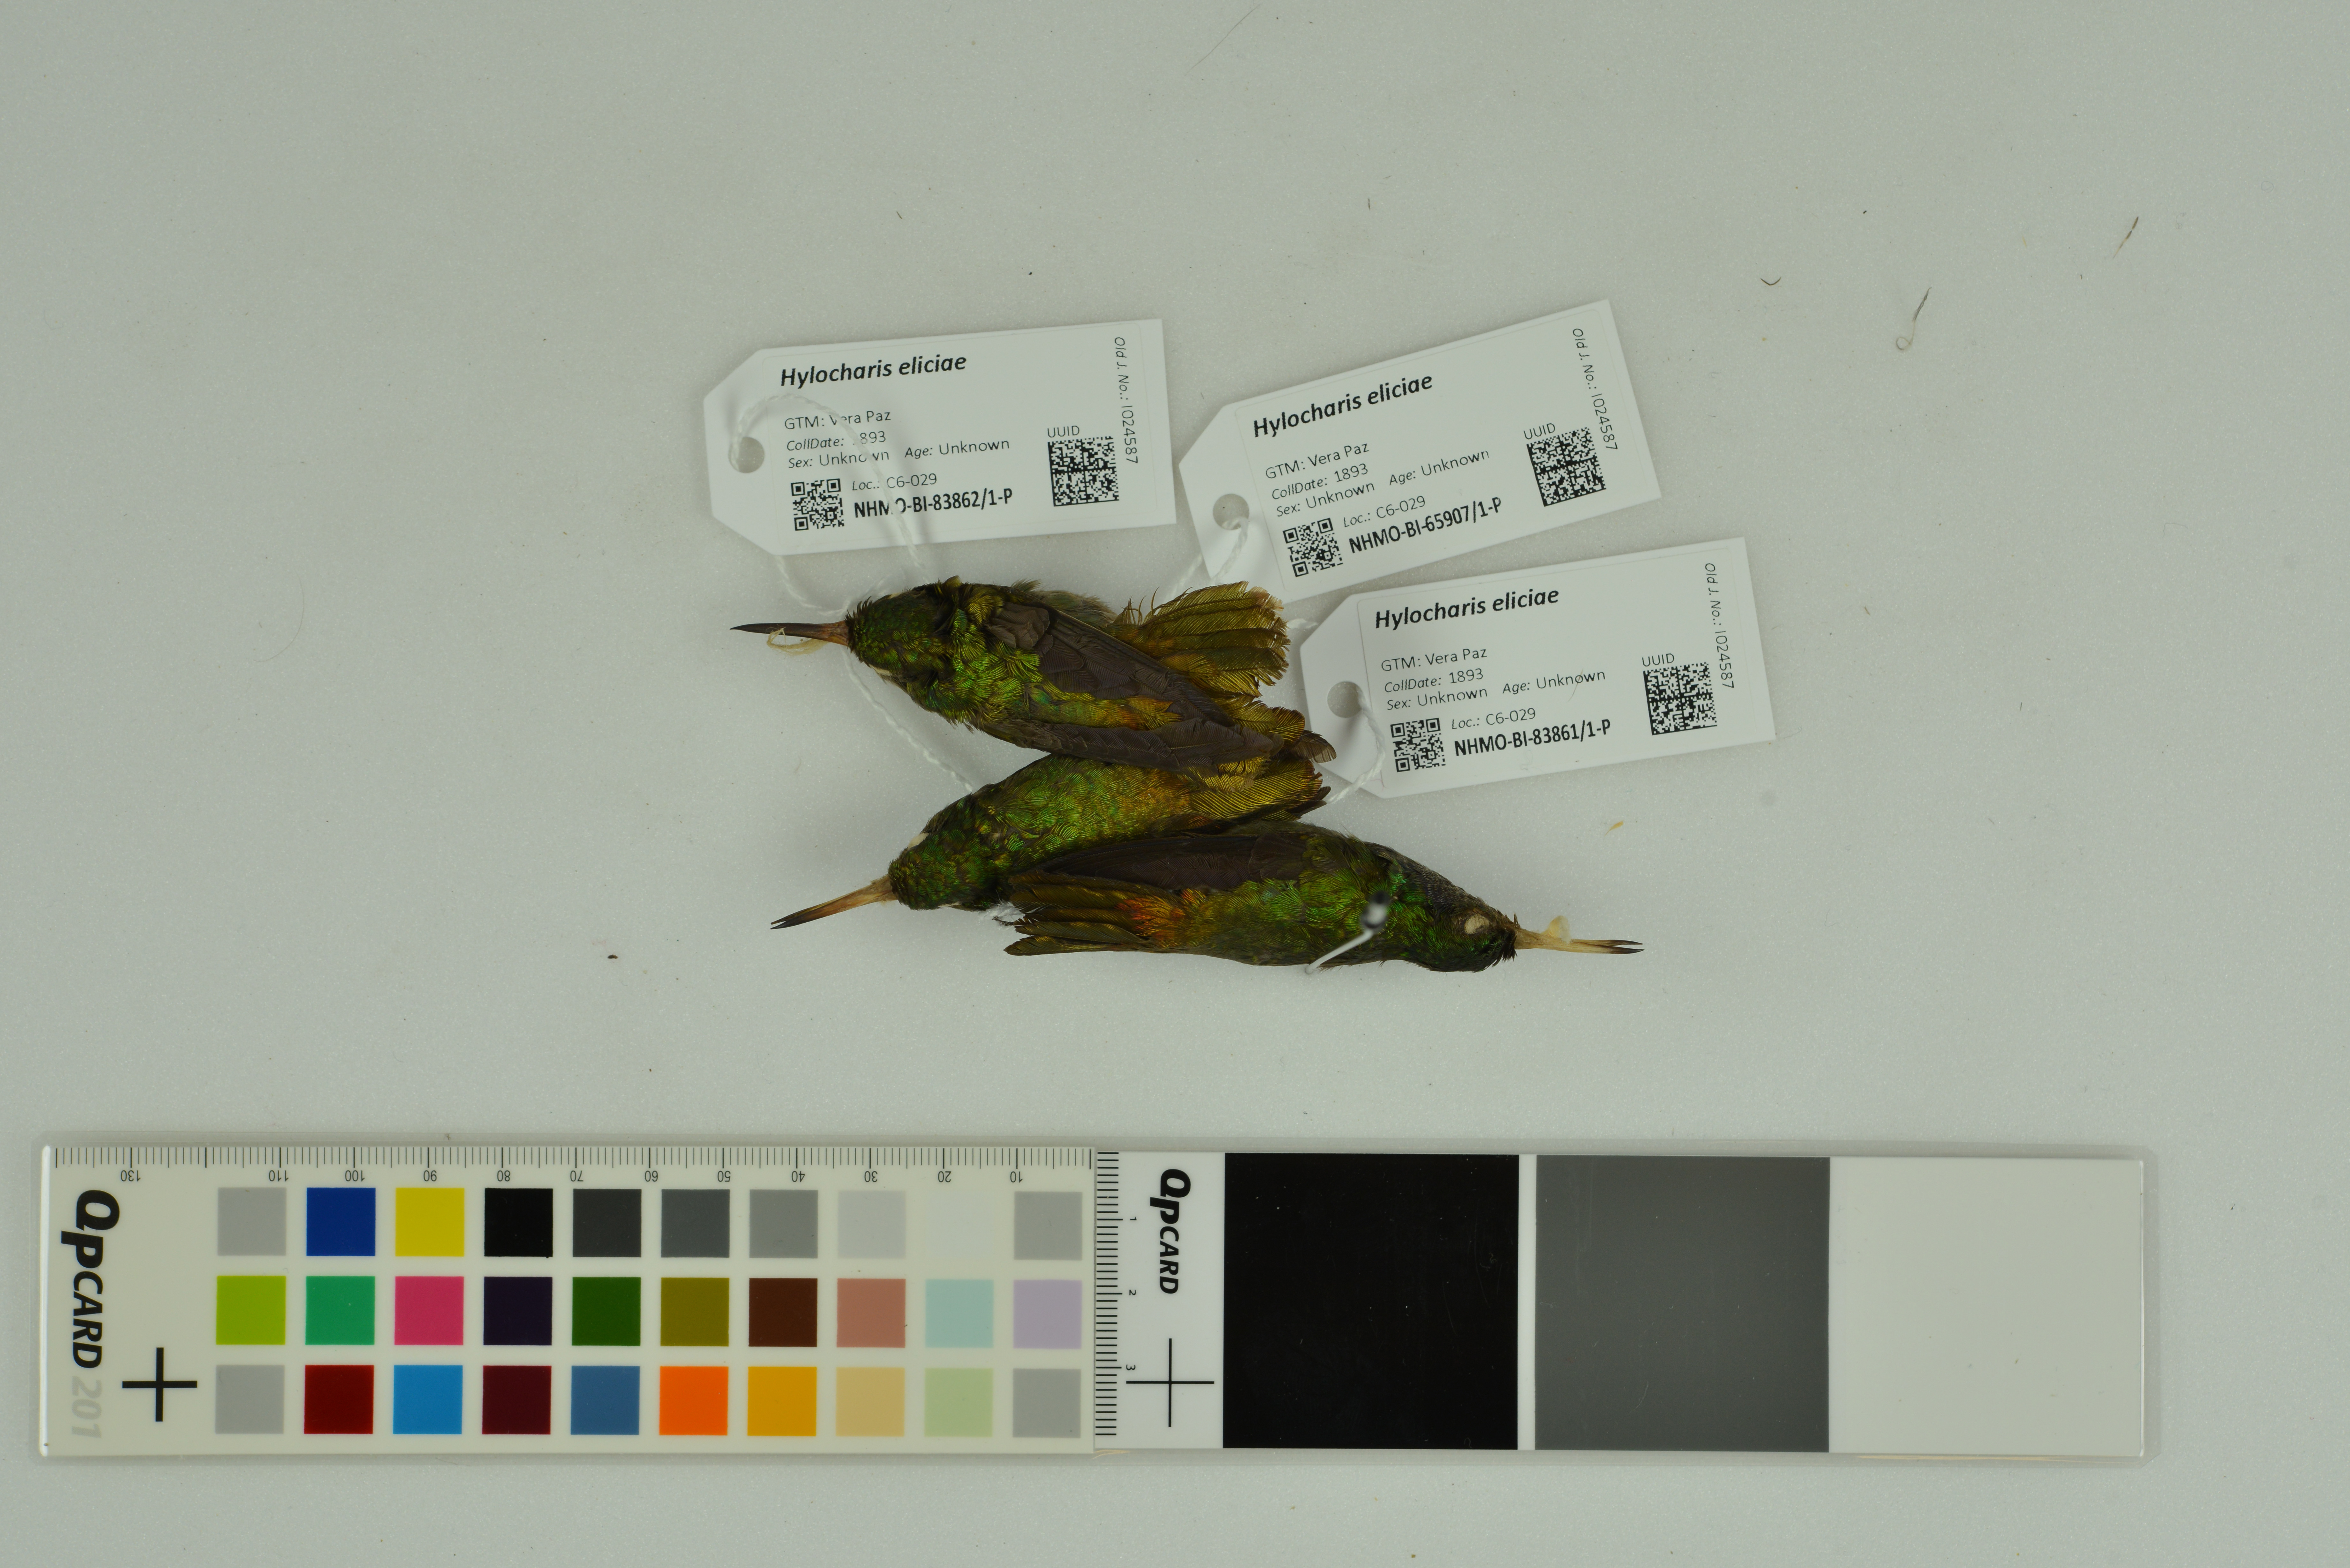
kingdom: Animalia
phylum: Chordata
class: Aves
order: Apodiformes
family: Trochilidae
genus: Chlorestes
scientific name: Chlorestes eliciae
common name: Blue-throated sapphire
